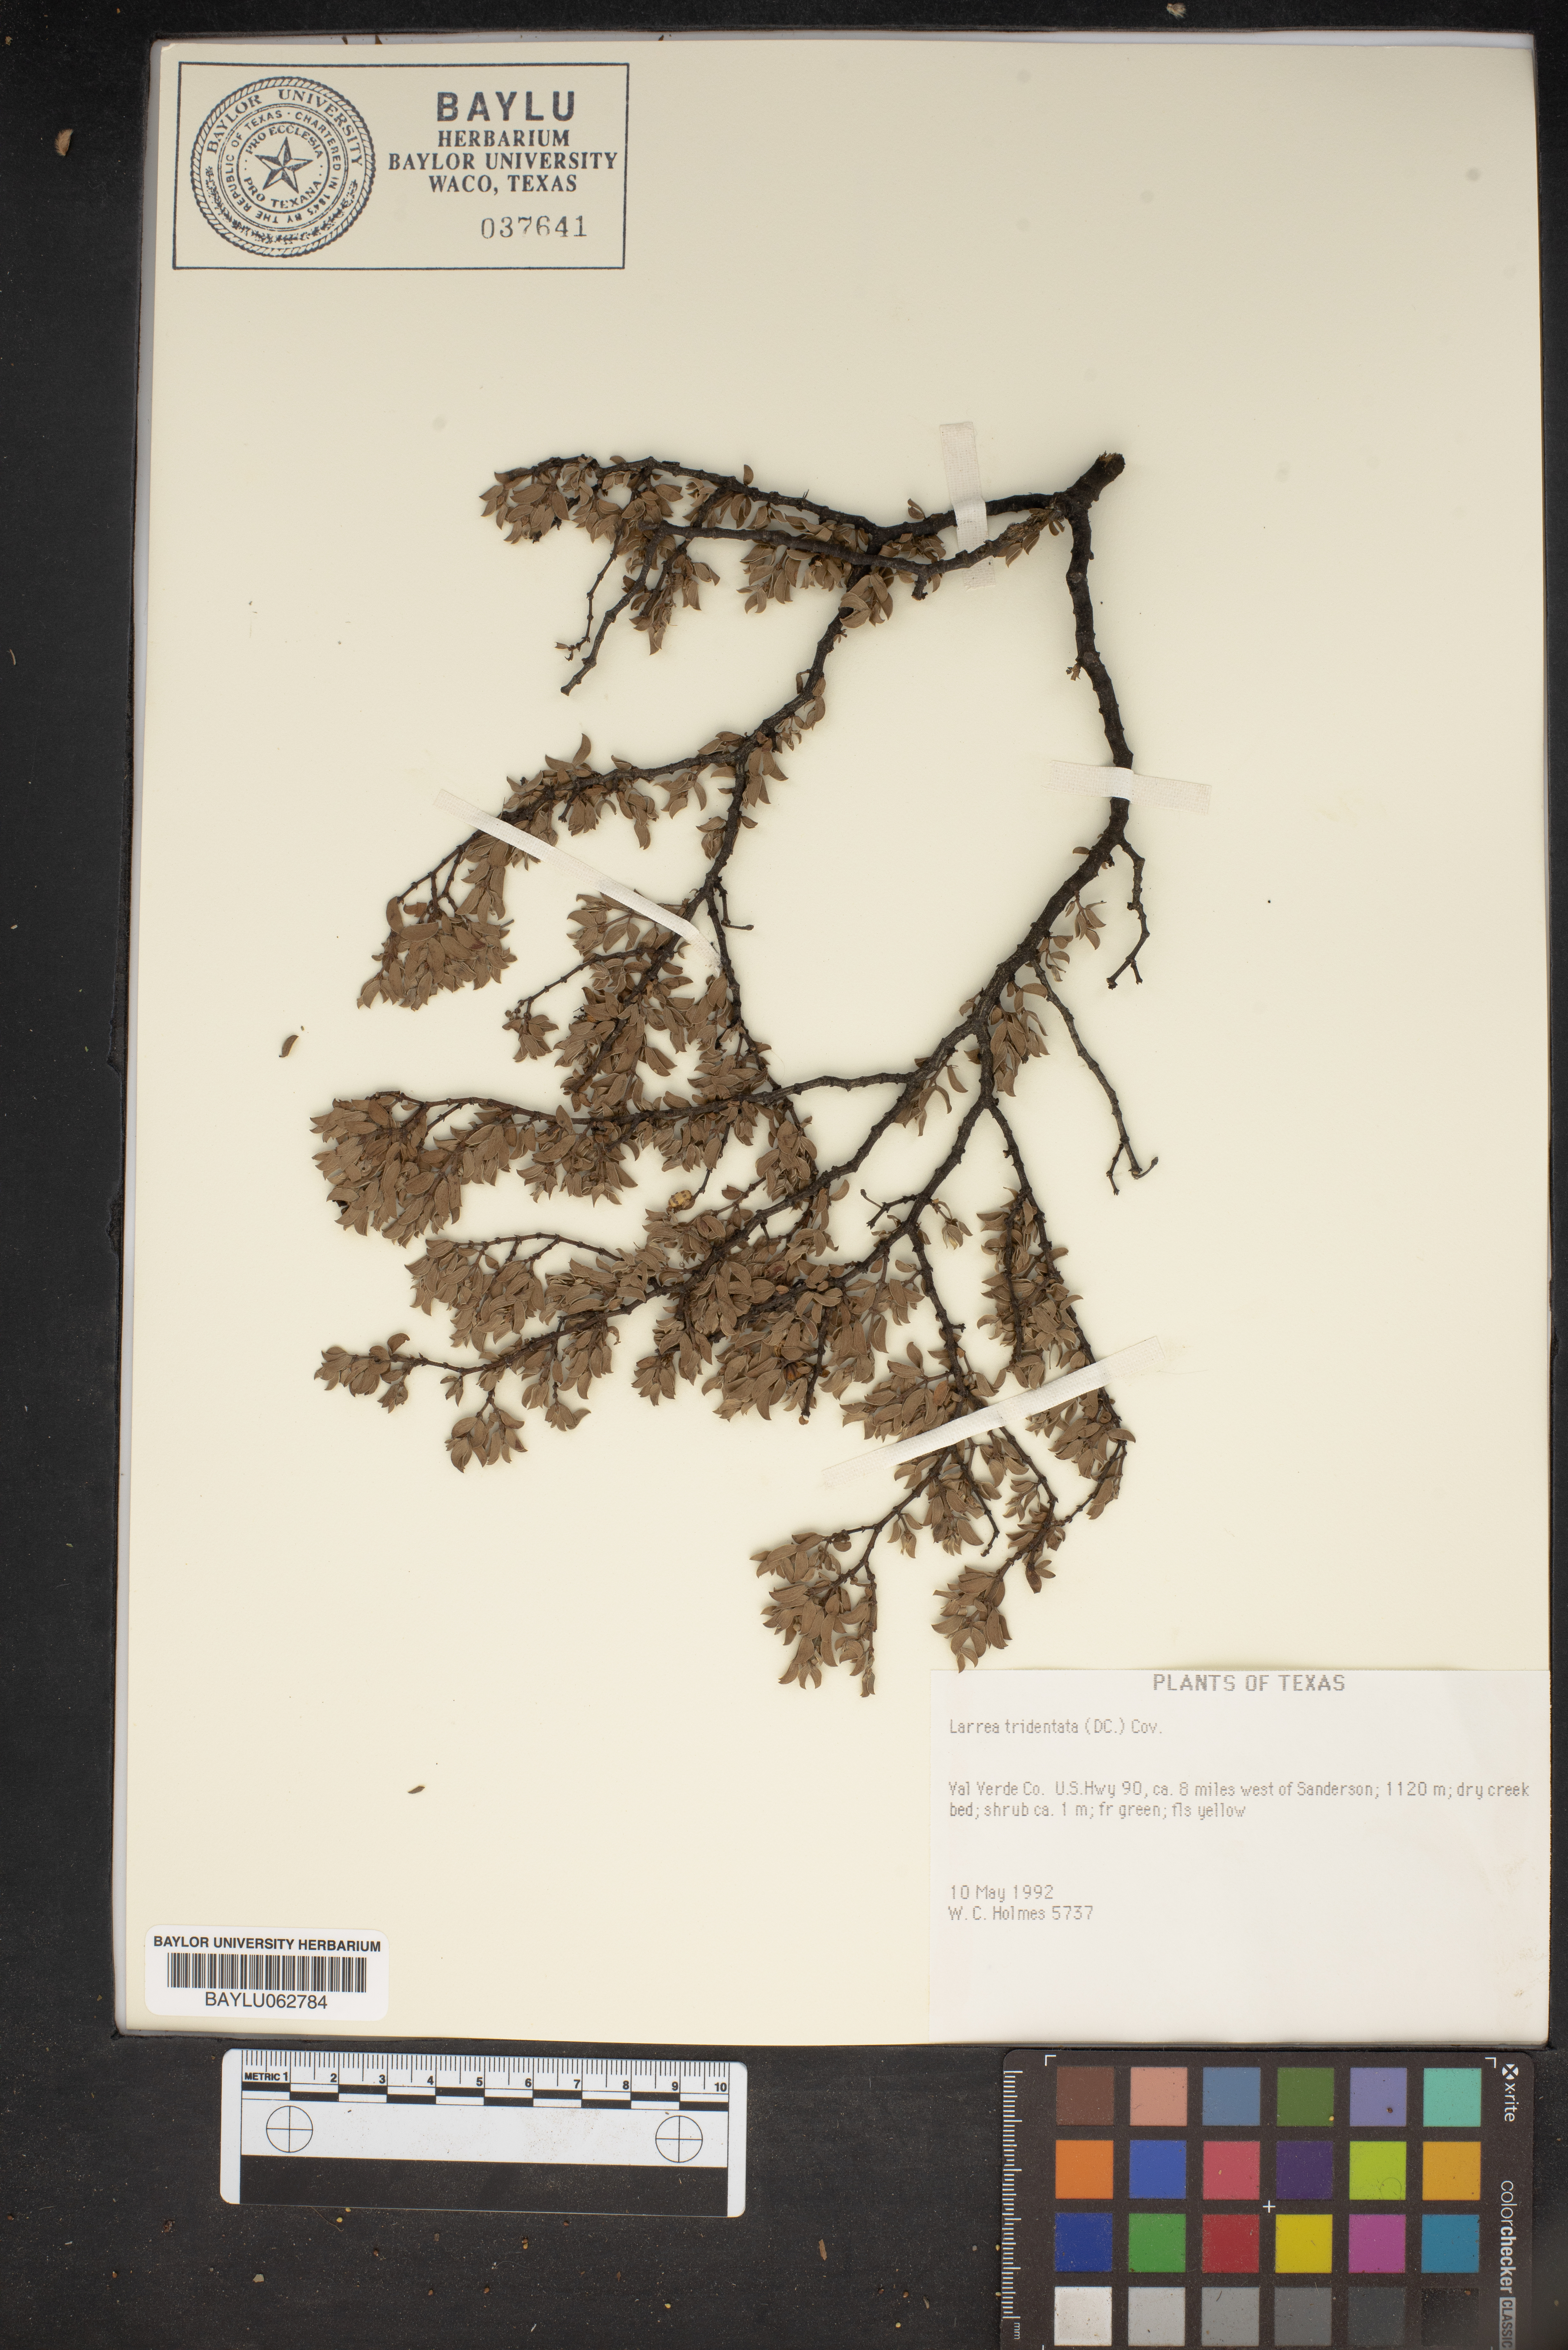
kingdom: Plantae
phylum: Tracheophyta
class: Magnoliopsida
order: Zygophyllales
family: Zygophyllaceae
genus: Larrea
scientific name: Larrea tridentata
